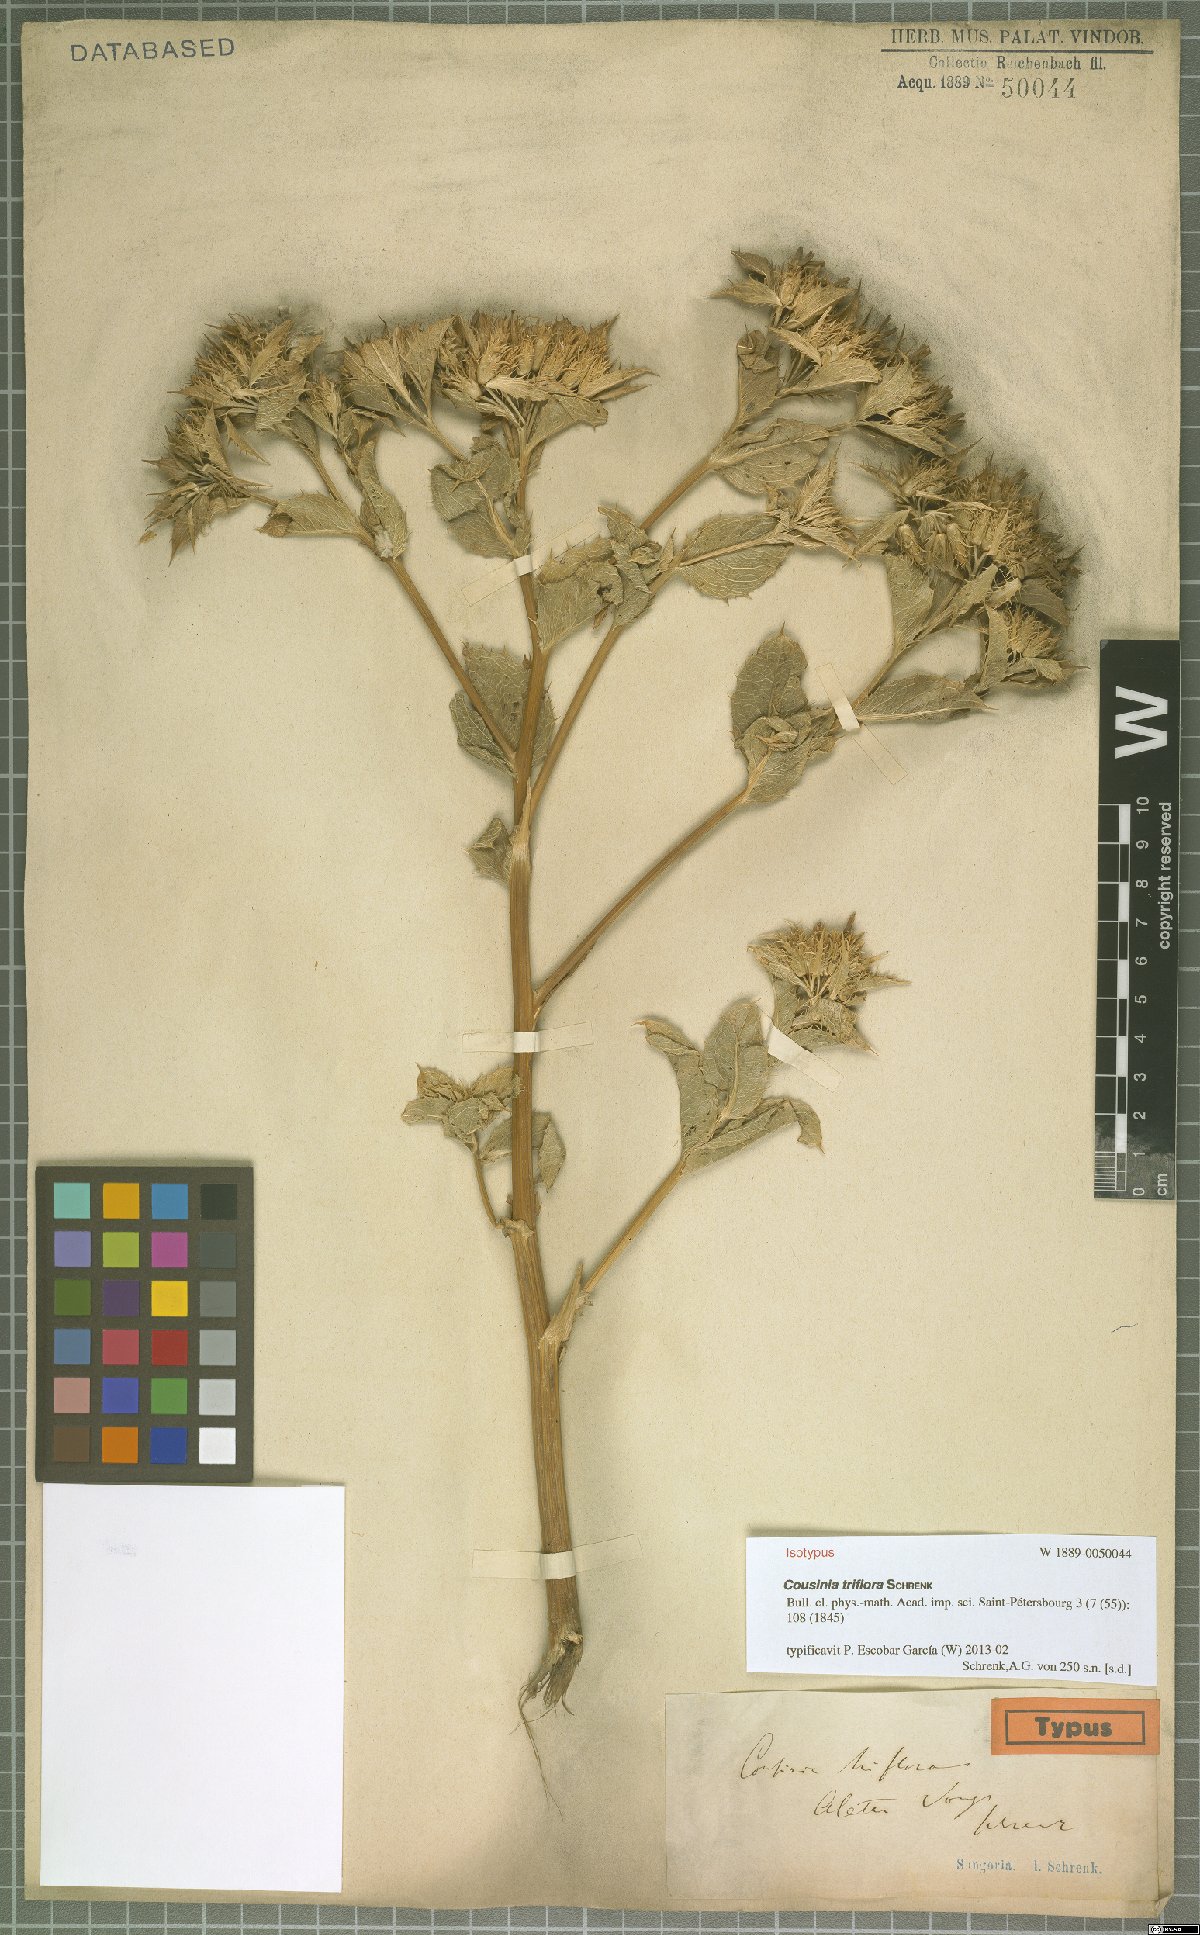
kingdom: Plantae
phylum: Tracheophyta
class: Magnoliopsida
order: Asterales
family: Asteraceae
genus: Arctium
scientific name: Arctium triflorum
